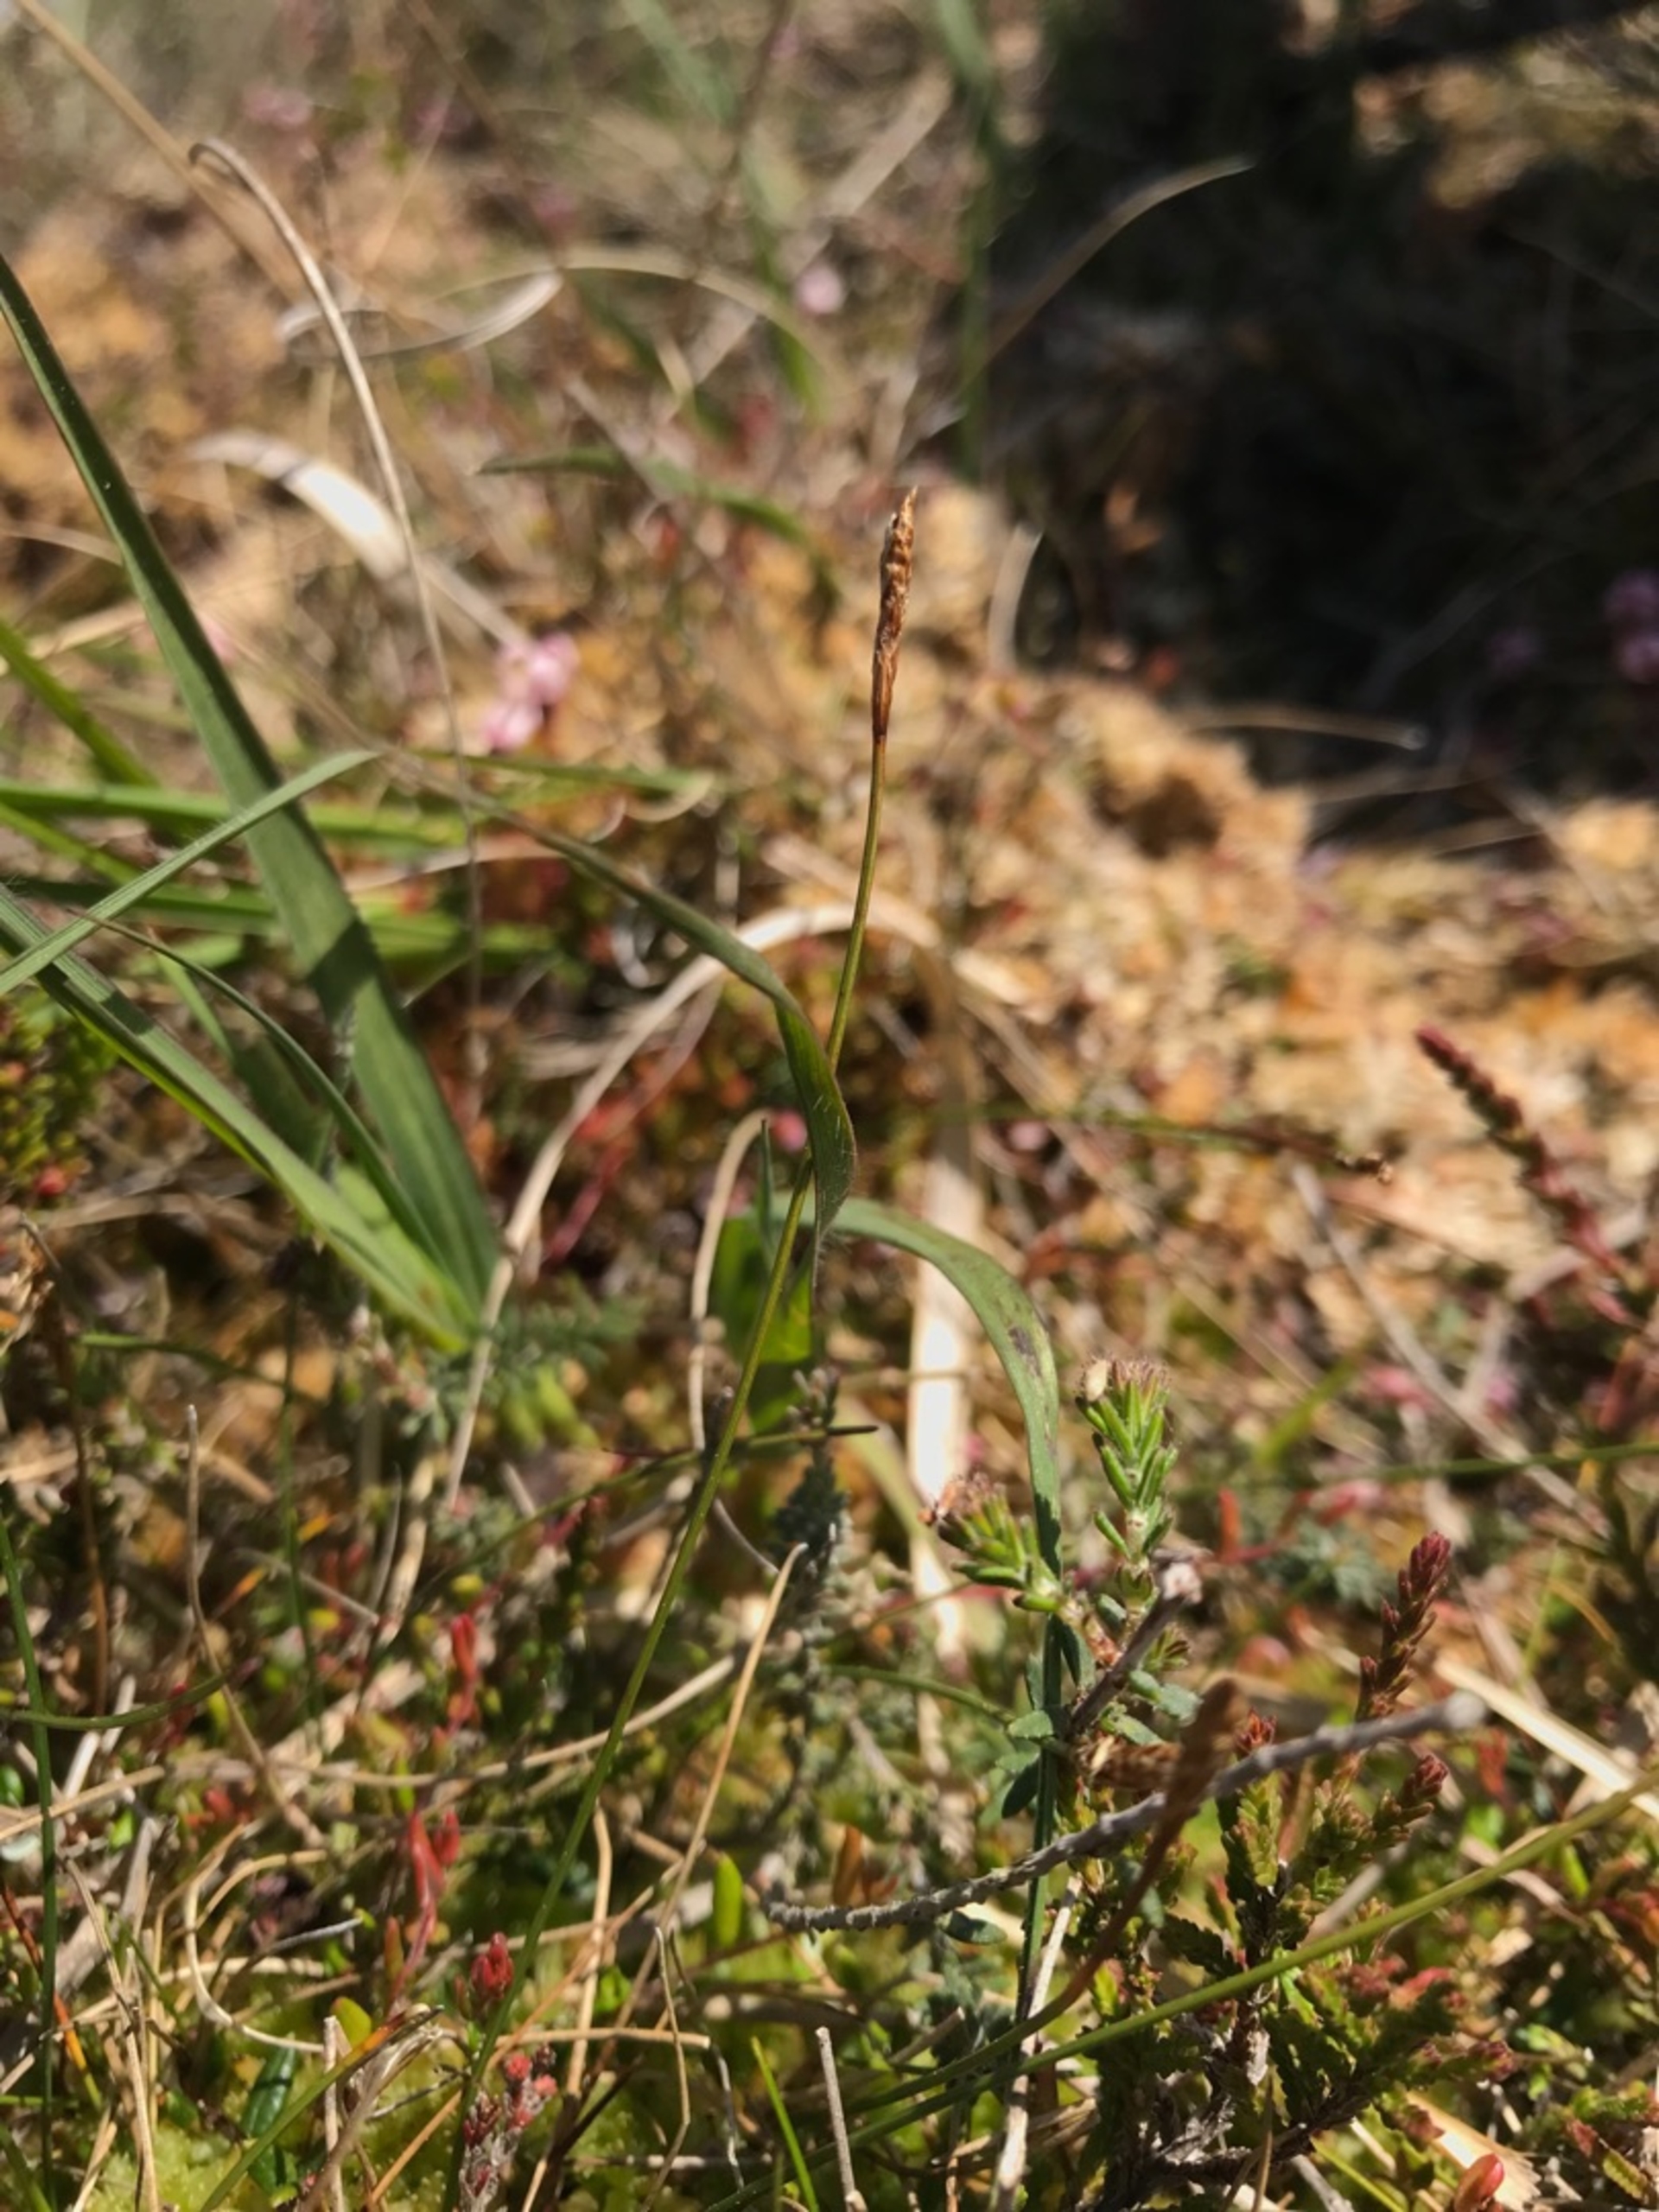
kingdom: Plantae
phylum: Tracheophyta
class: Liliopsida
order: Poales
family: Cyperaceae
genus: Carex
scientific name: Carex dioica
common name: Tvebo star
